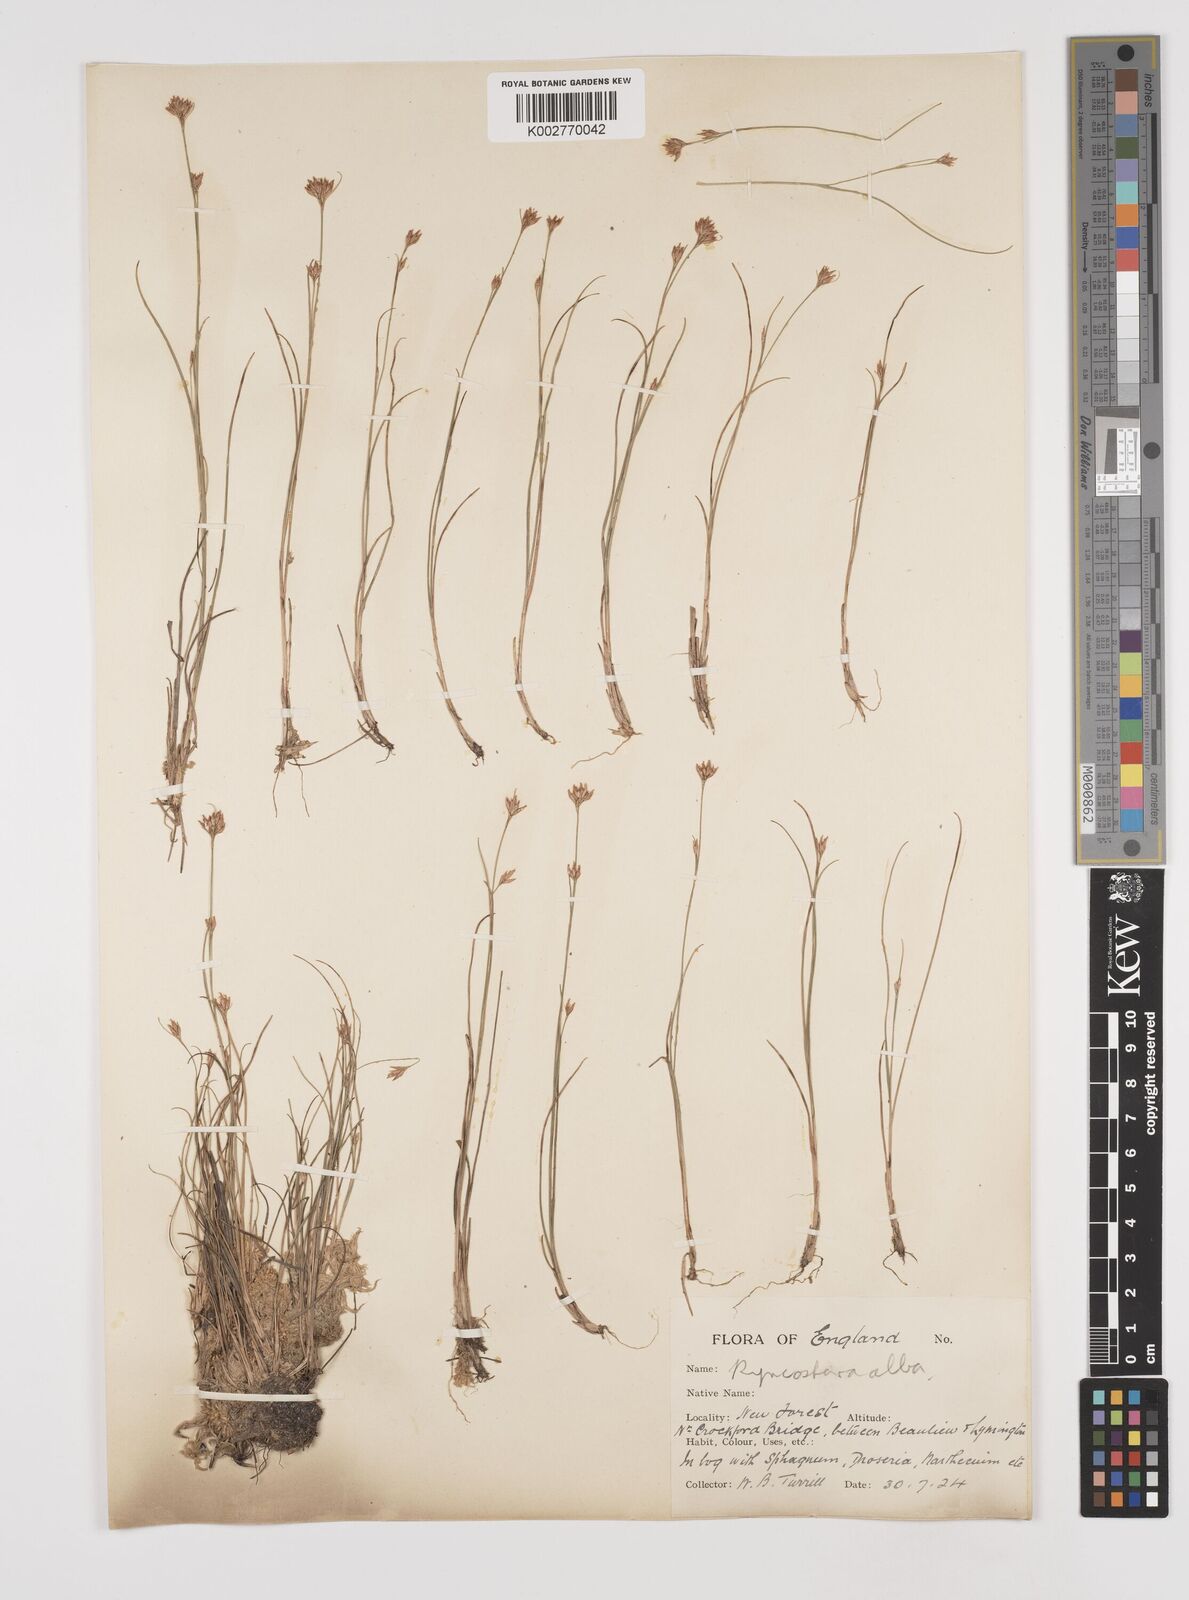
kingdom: Plantae
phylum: Tracheophyta
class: Liliopsida
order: Poales
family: Cyperaceae
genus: Rhynchospora
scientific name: Rhynchospora alba
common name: White beak-sedge
